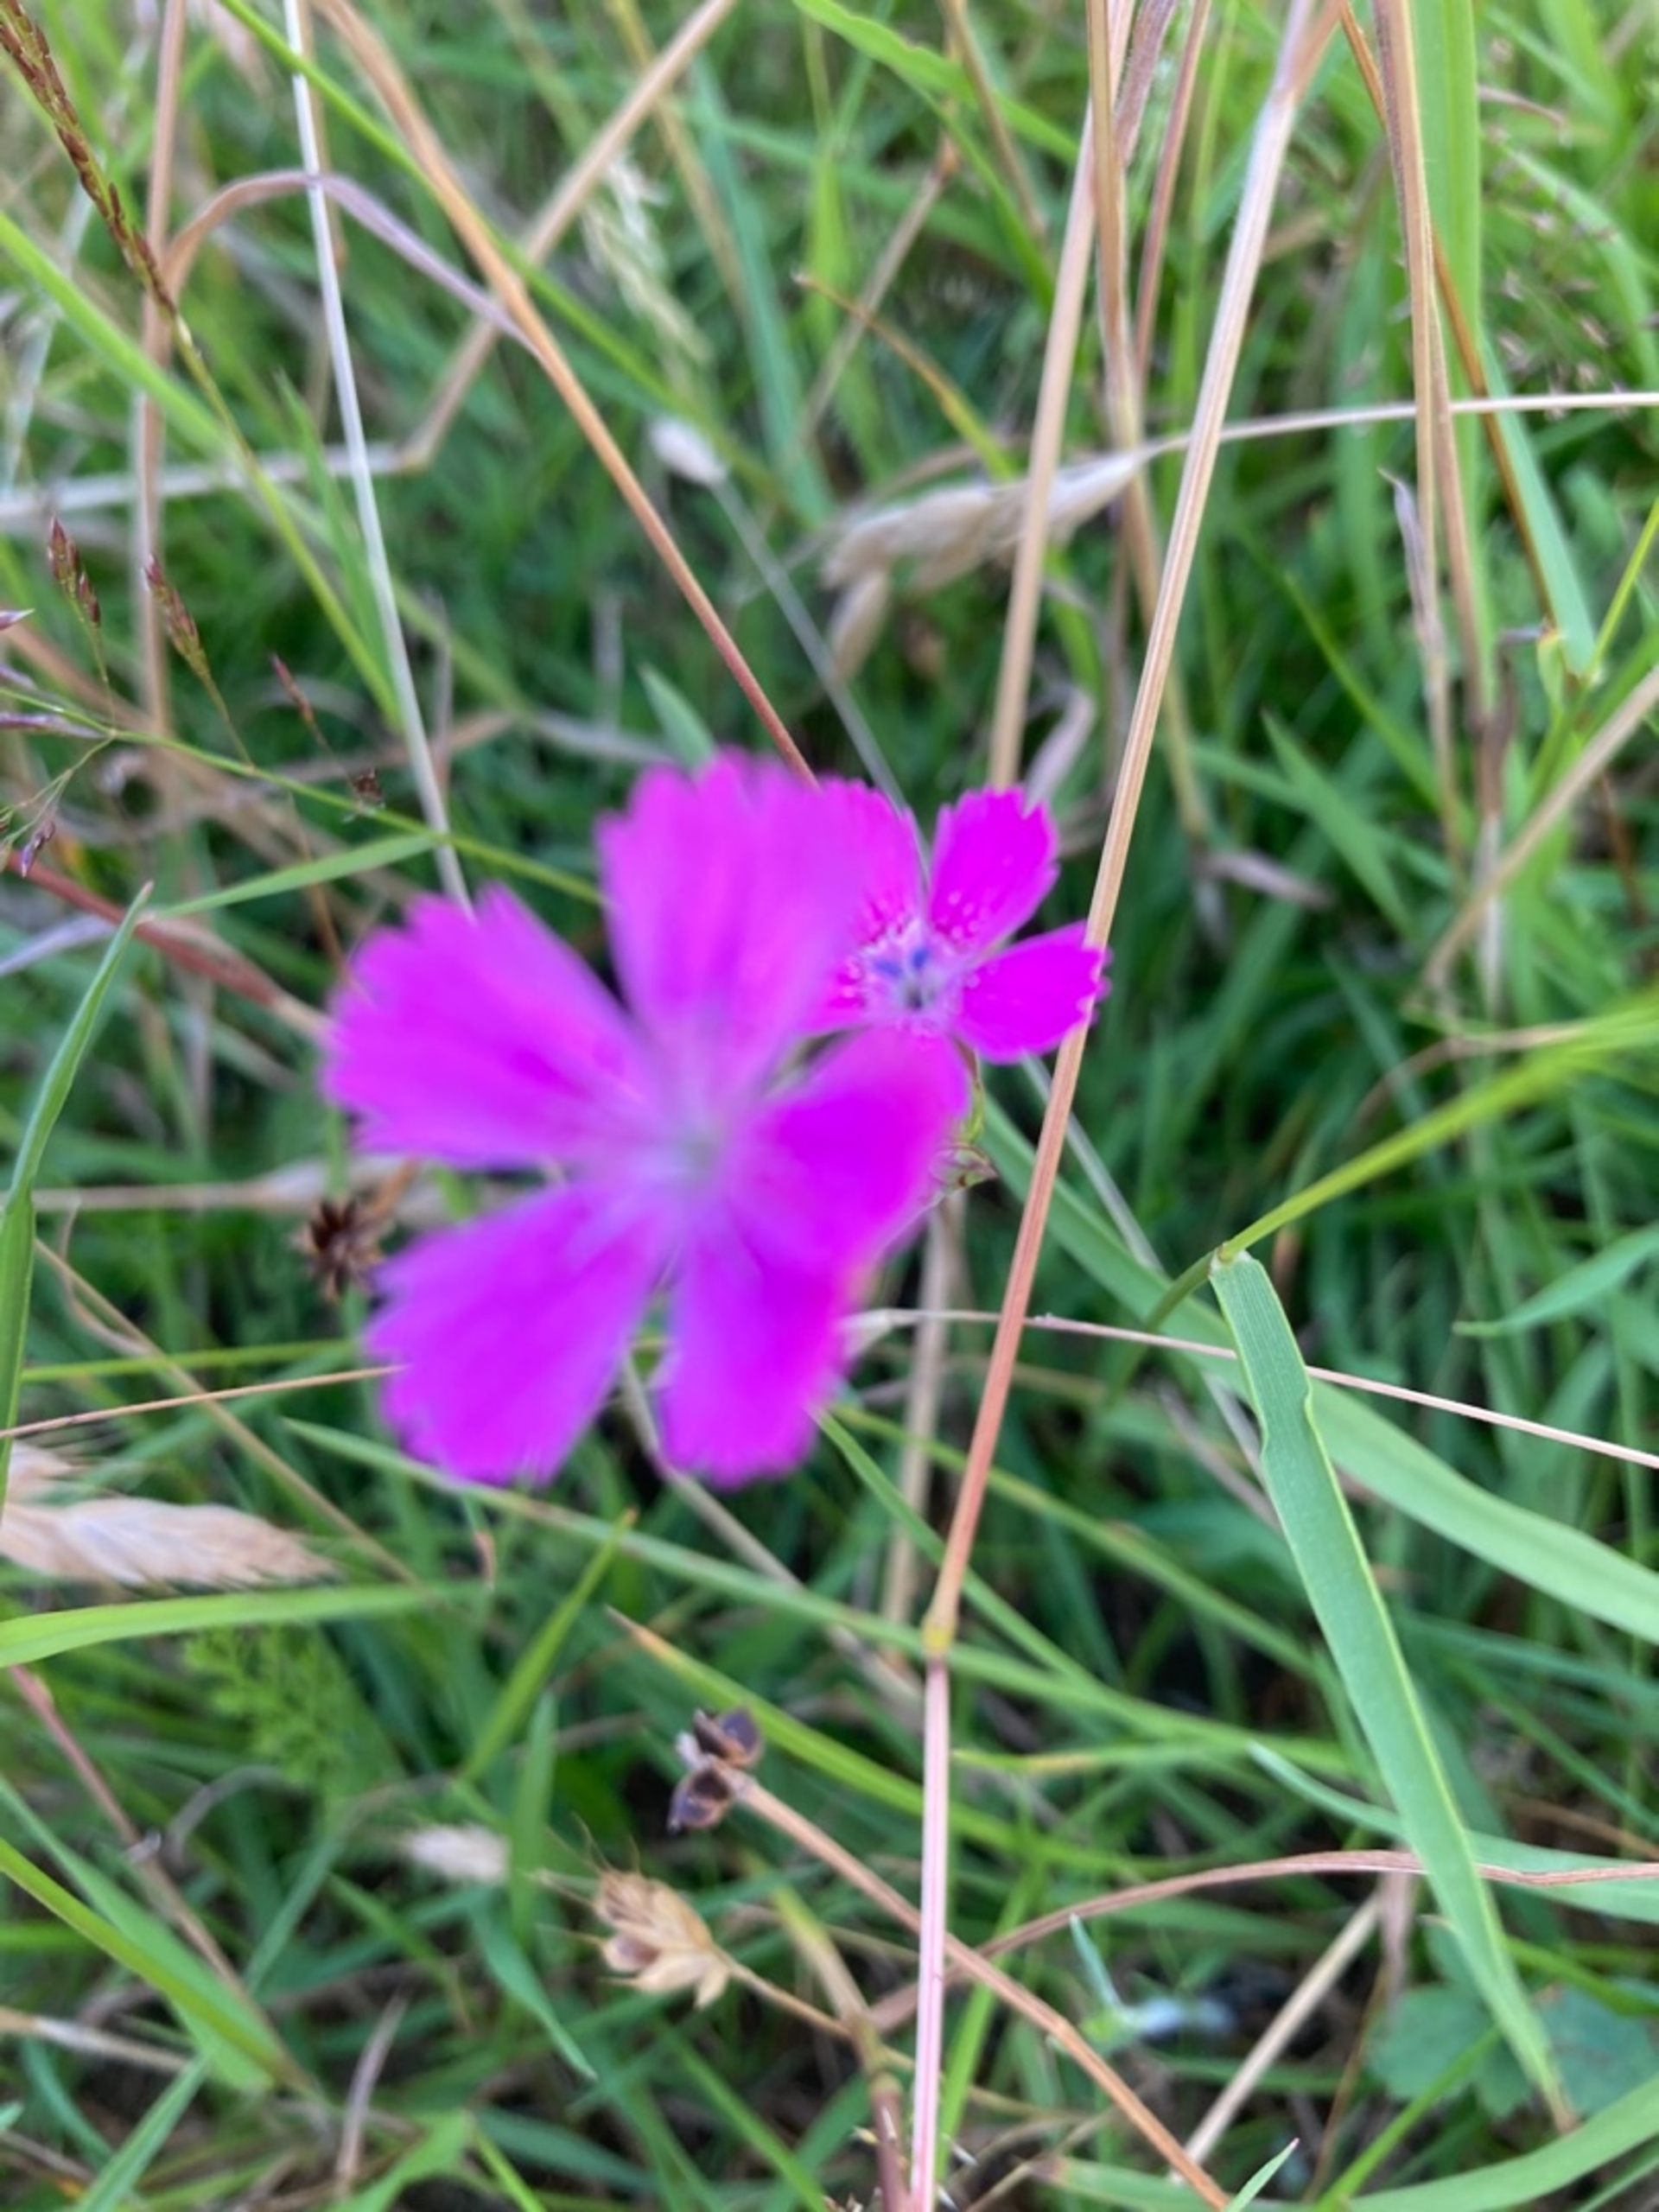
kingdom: Plantae
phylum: Tracheophyta
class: Magnoliopsida
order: Caryophyllales
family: Caryophyllaceae
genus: Dianthus
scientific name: Dianthus deltoides
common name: Bakke-nellike
